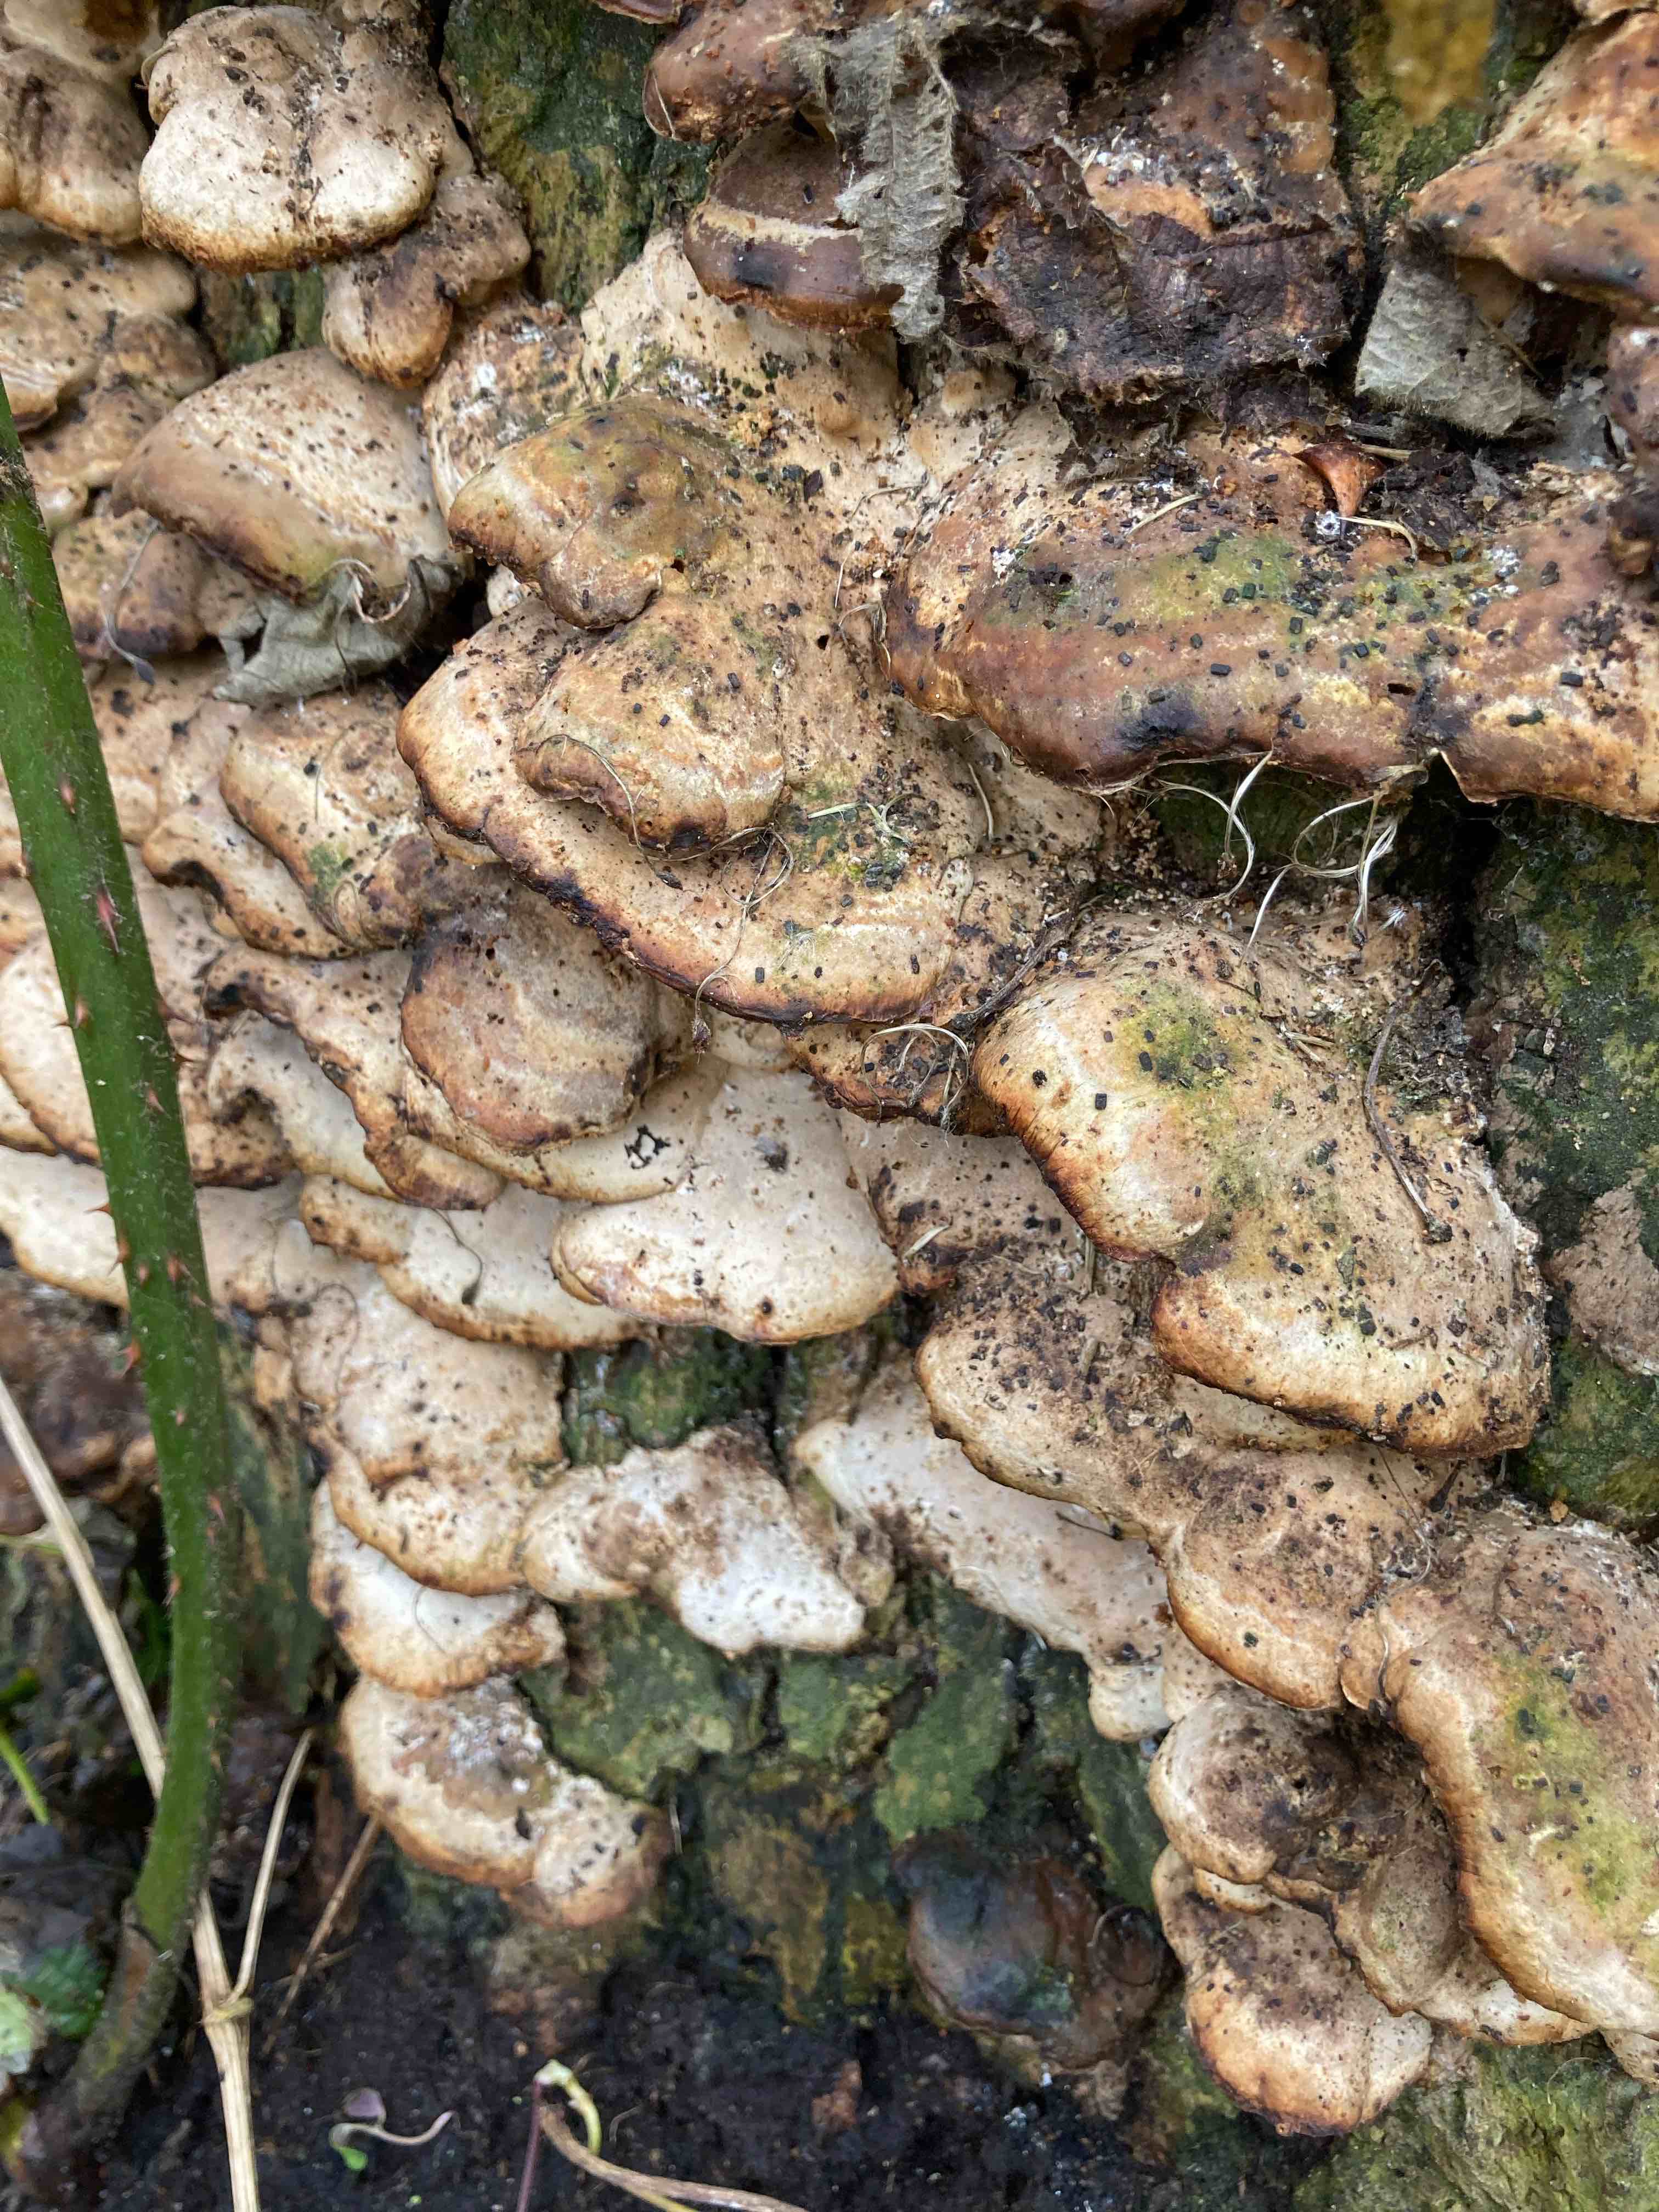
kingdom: Fungi
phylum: Basidiomycota
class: Agaricomycetes
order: Polyporales
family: Phanerochaetaceae
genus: Bjerkandera
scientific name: Bjerkandera fumosa
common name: grågul sodporesvamp
